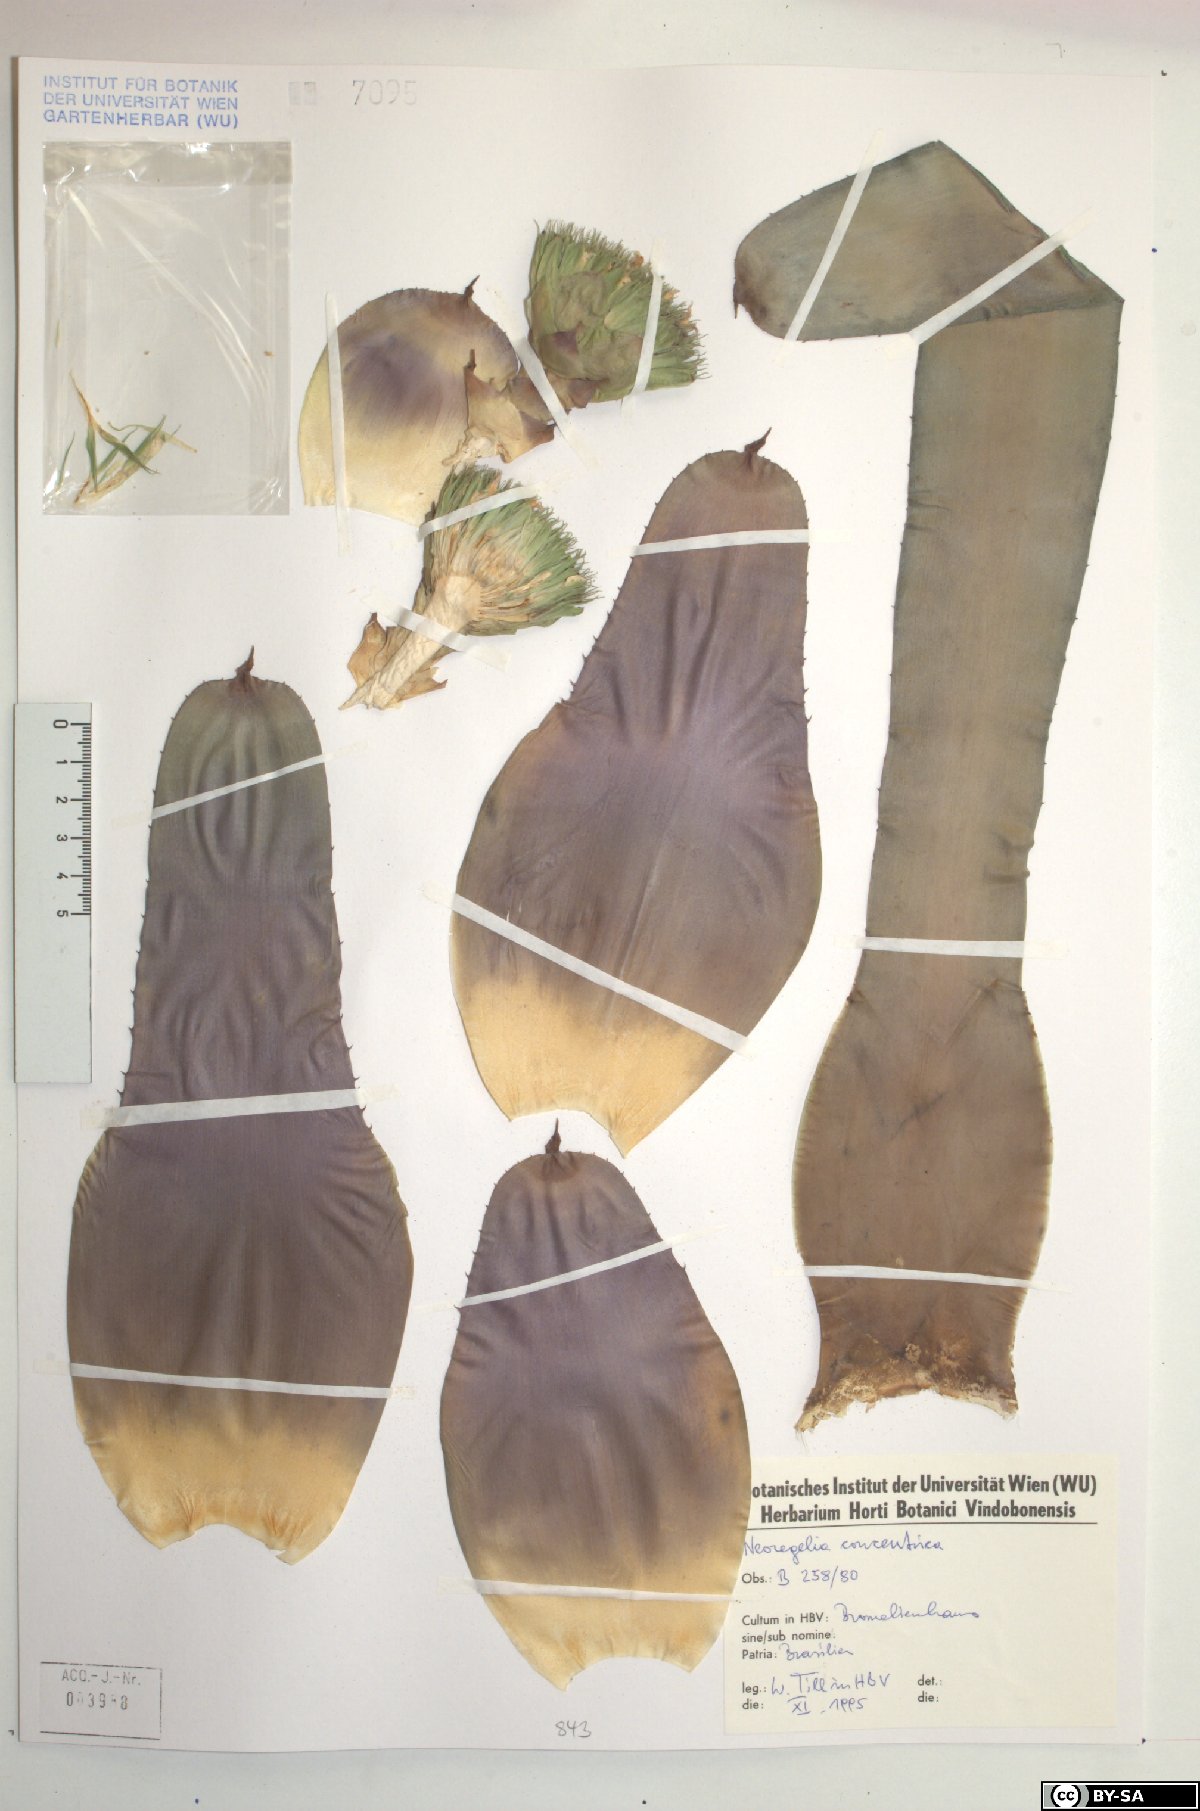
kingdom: Plantae
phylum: Tracheophyta
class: Liliopsida
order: Poales
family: Bromeliaceae
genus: Neoregelia
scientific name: Neoregelia concentrica
